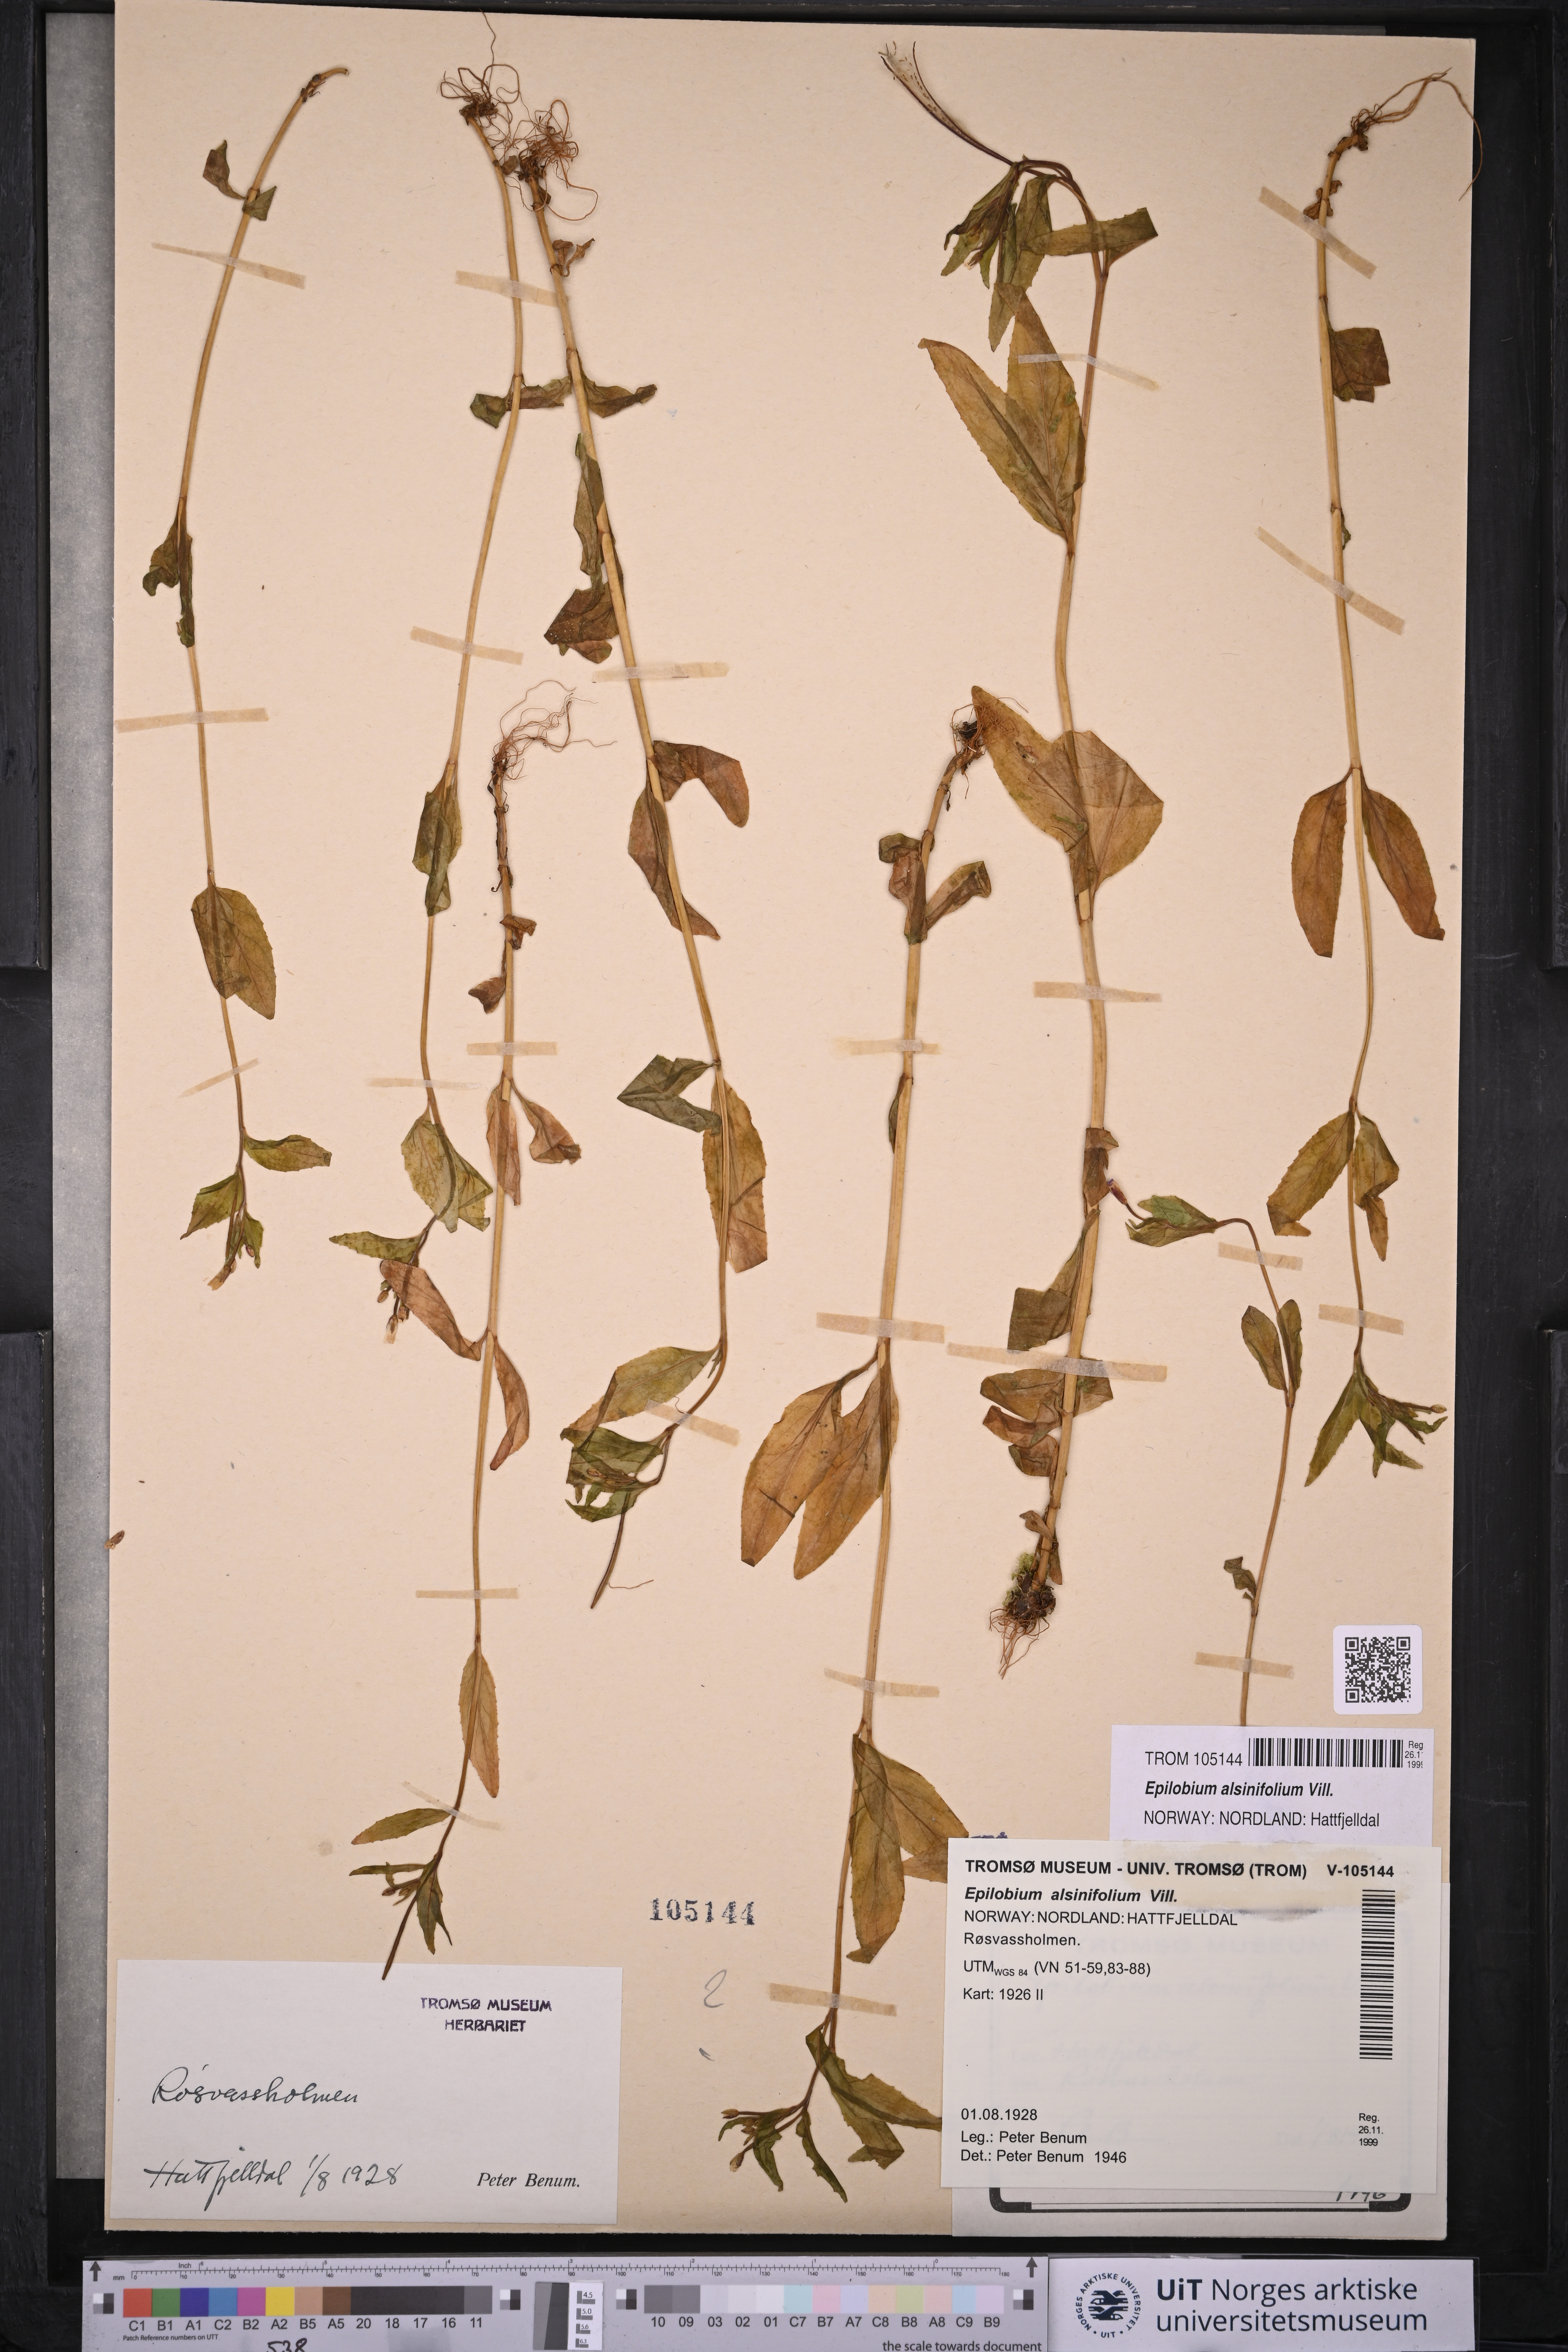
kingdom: Plantae
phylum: Tracheophyta
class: Magnoliopsida
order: Myrtales
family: Onagraceae
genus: Epilobium
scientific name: Epilobium alsinifolium
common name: Chickweed willowherb
